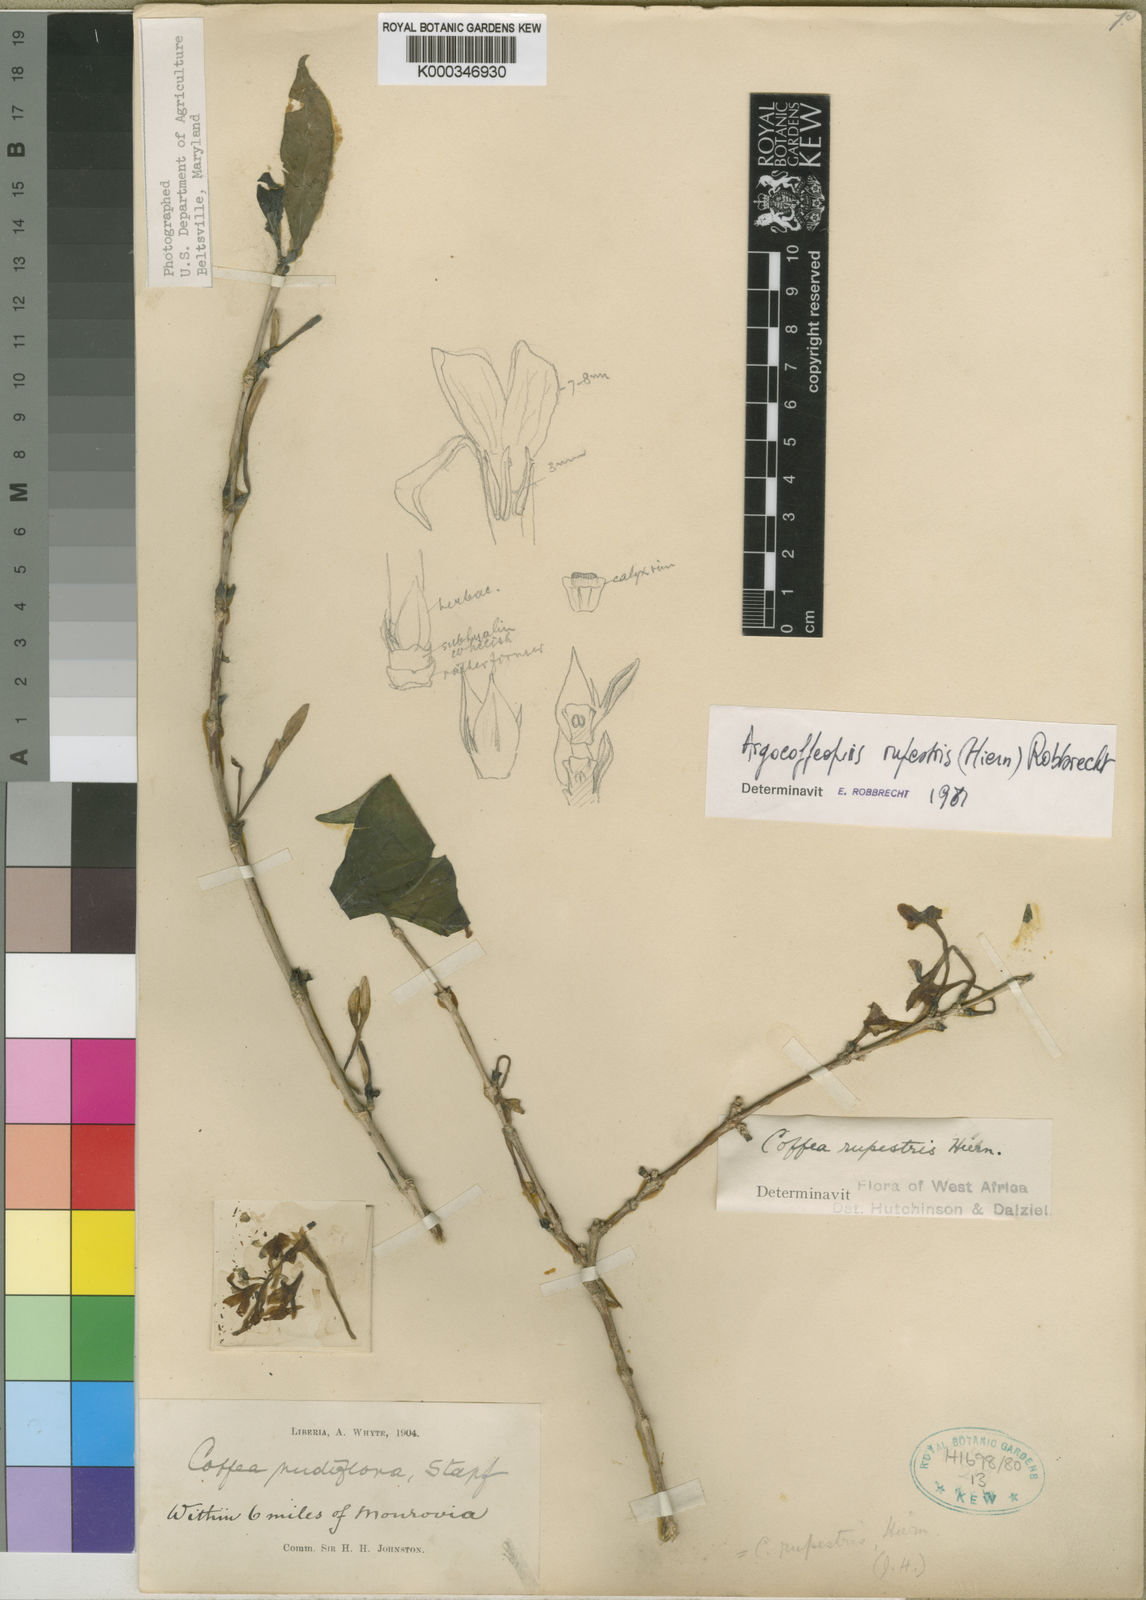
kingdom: Plantae
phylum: Tracheophyta
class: Magnoliopsida
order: Gentianales
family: Rubiaceae
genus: Argocoffeopsis
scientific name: Argocoffeopsis rupestris
